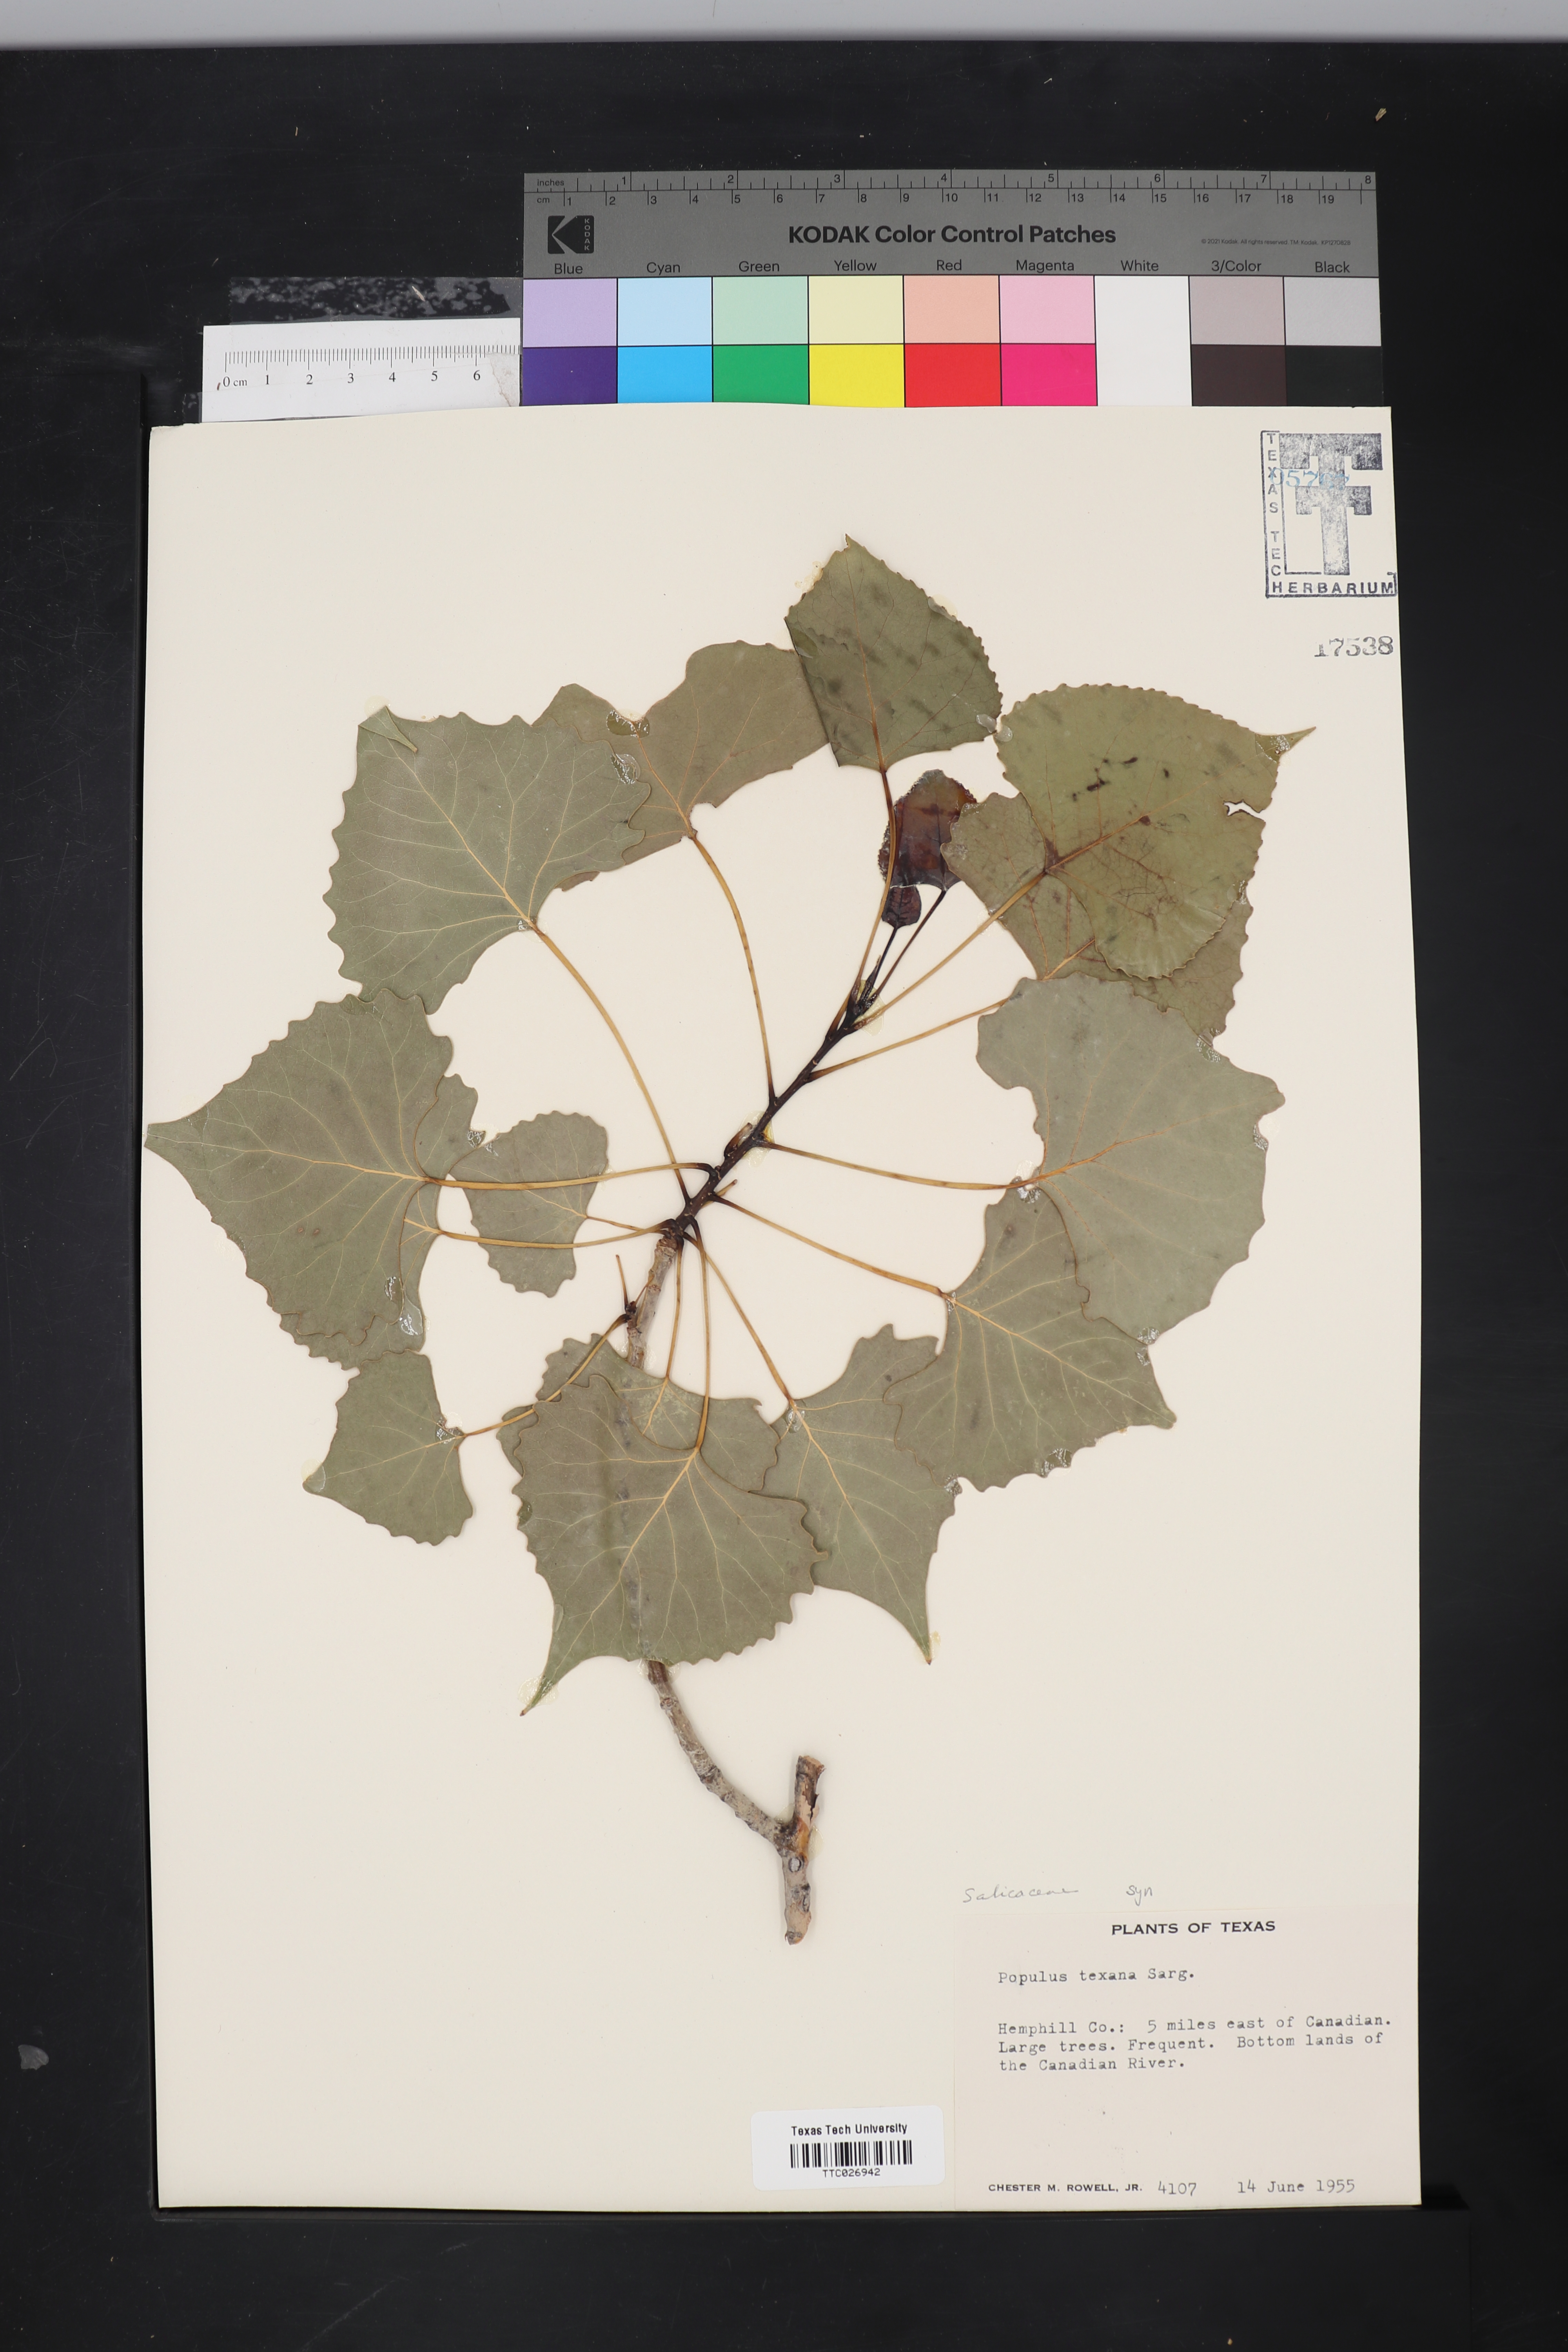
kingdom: Plantae
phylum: Tracheophyta
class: Magnoliopsida
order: Malpighiales
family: Salicaceae
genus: Populus
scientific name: Populus deltoides
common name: Eastern cottonwood
